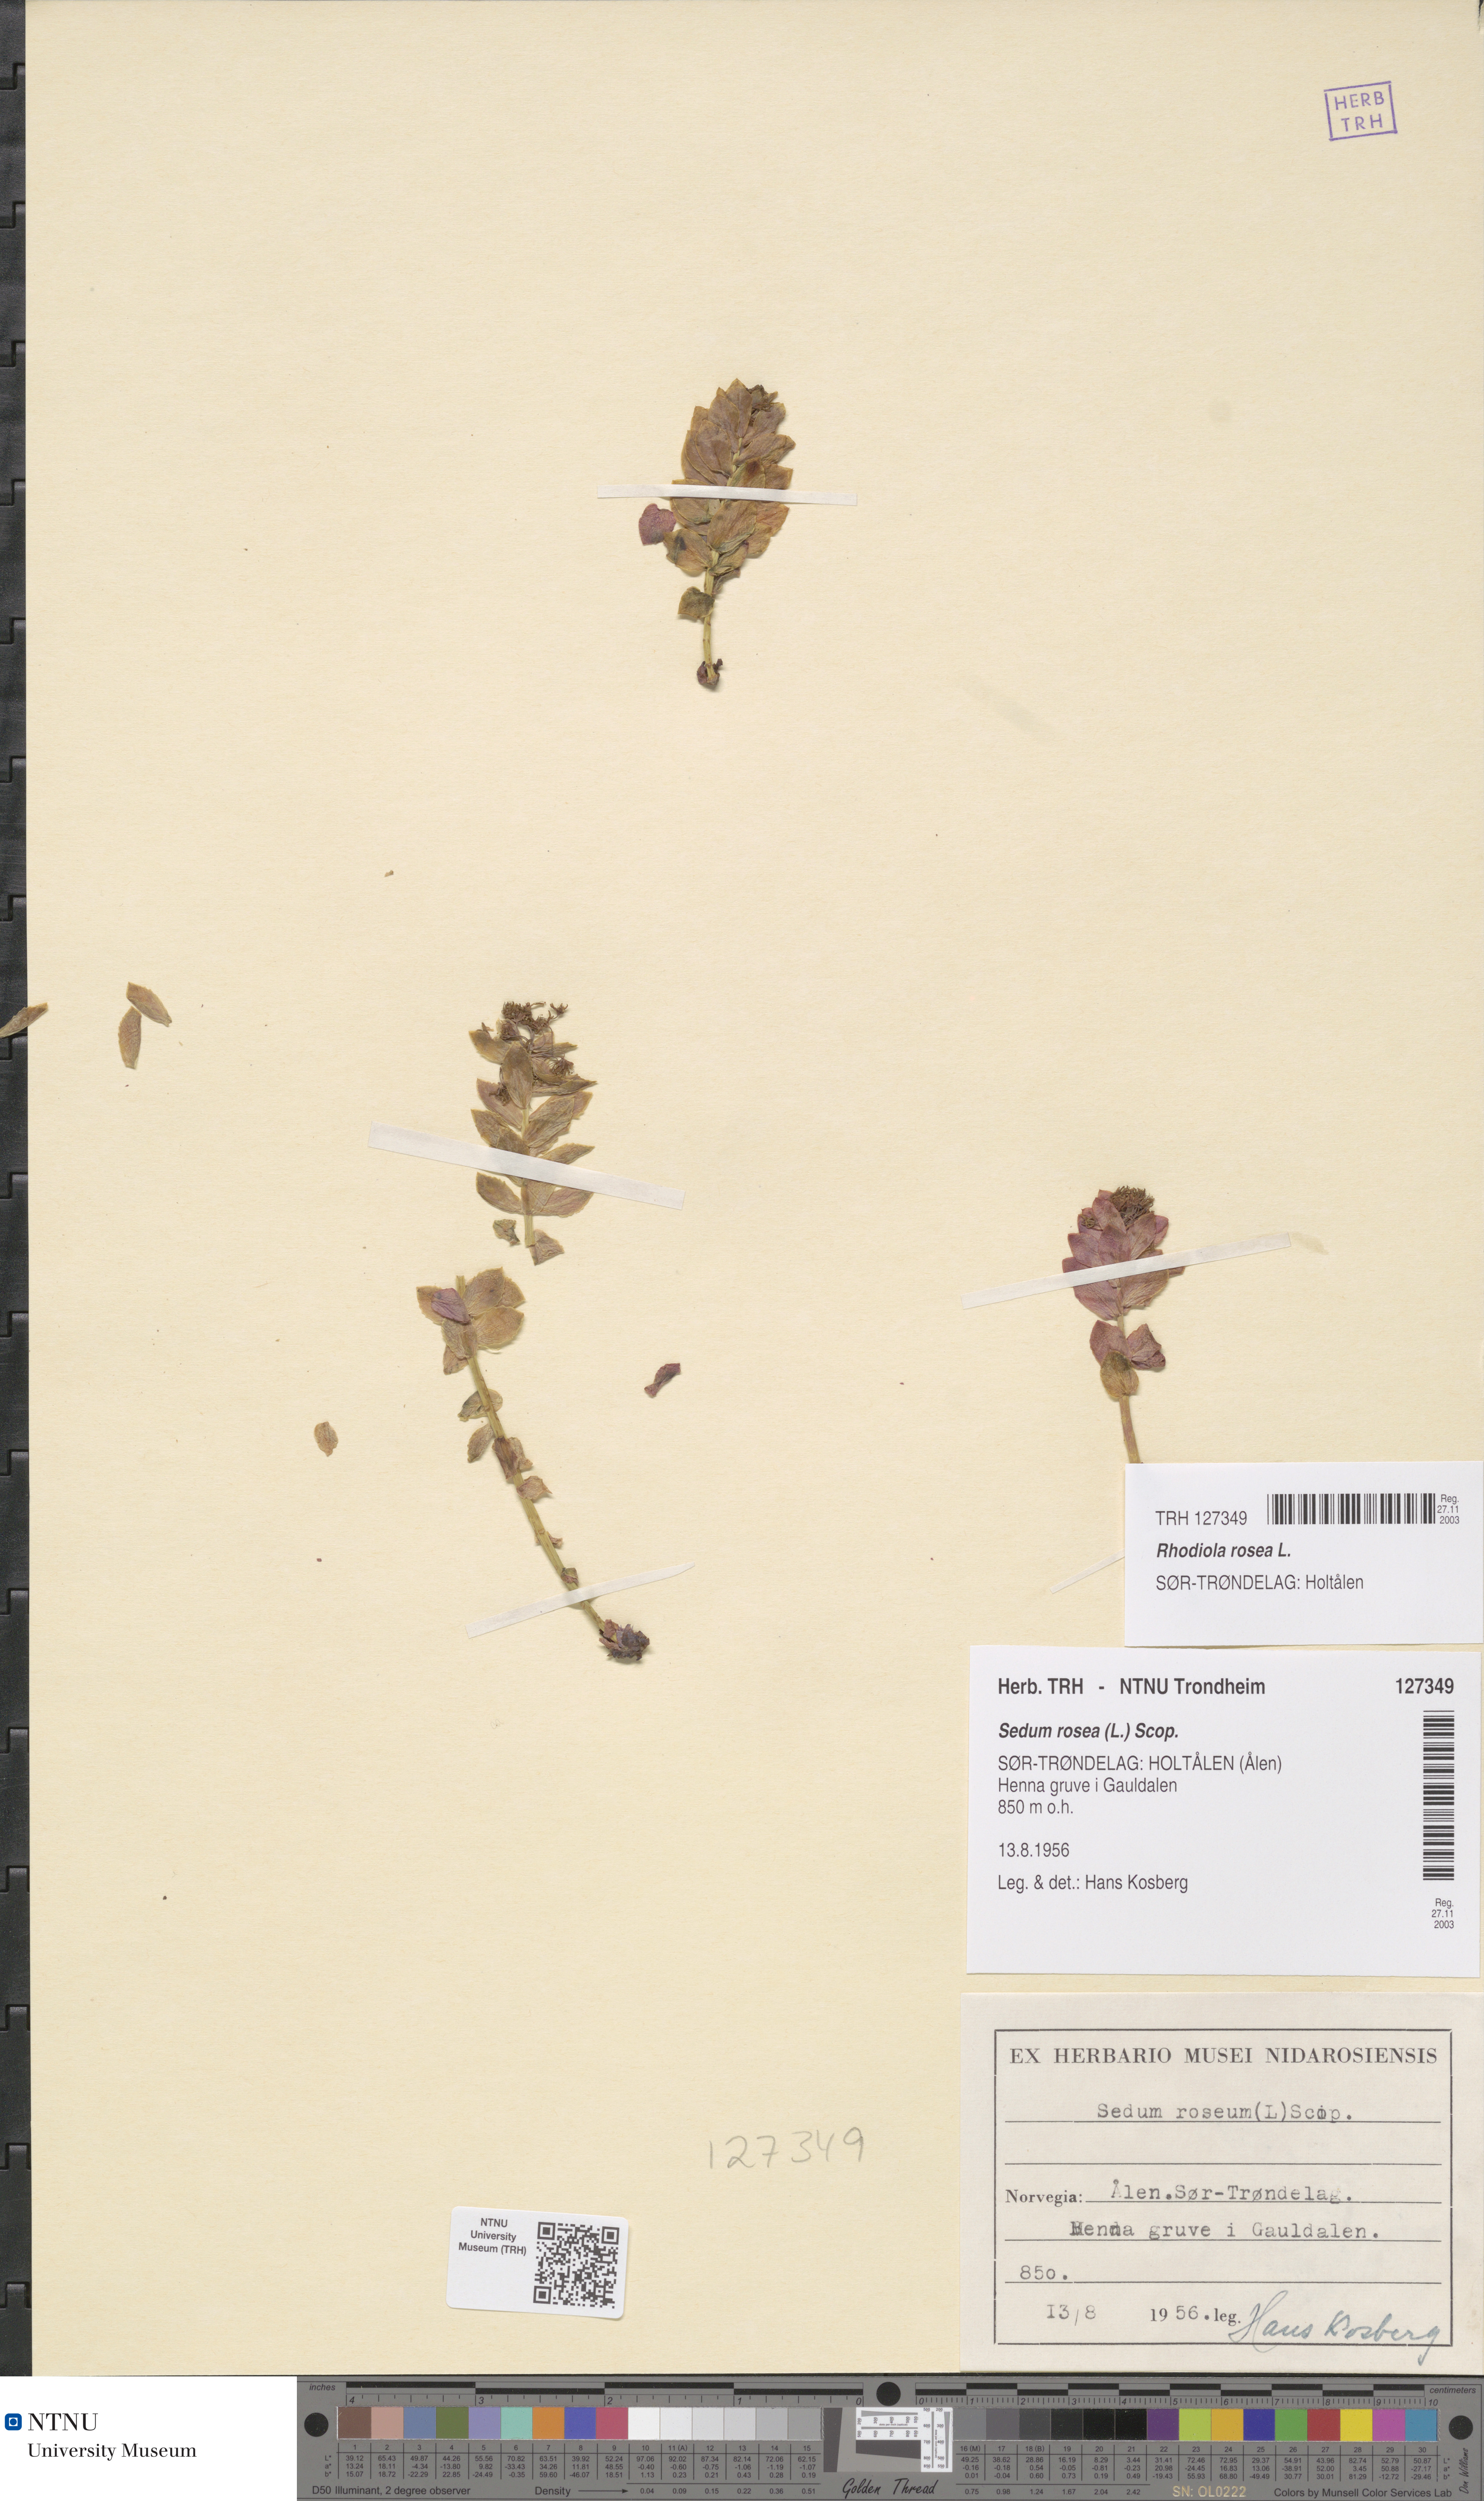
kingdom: Plantae
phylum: Tracheophyta
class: Magnoliopsida
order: Saxifragales
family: Crassulaceae
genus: Rhodiola
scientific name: Rhodiola rosea
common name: Roseroot
